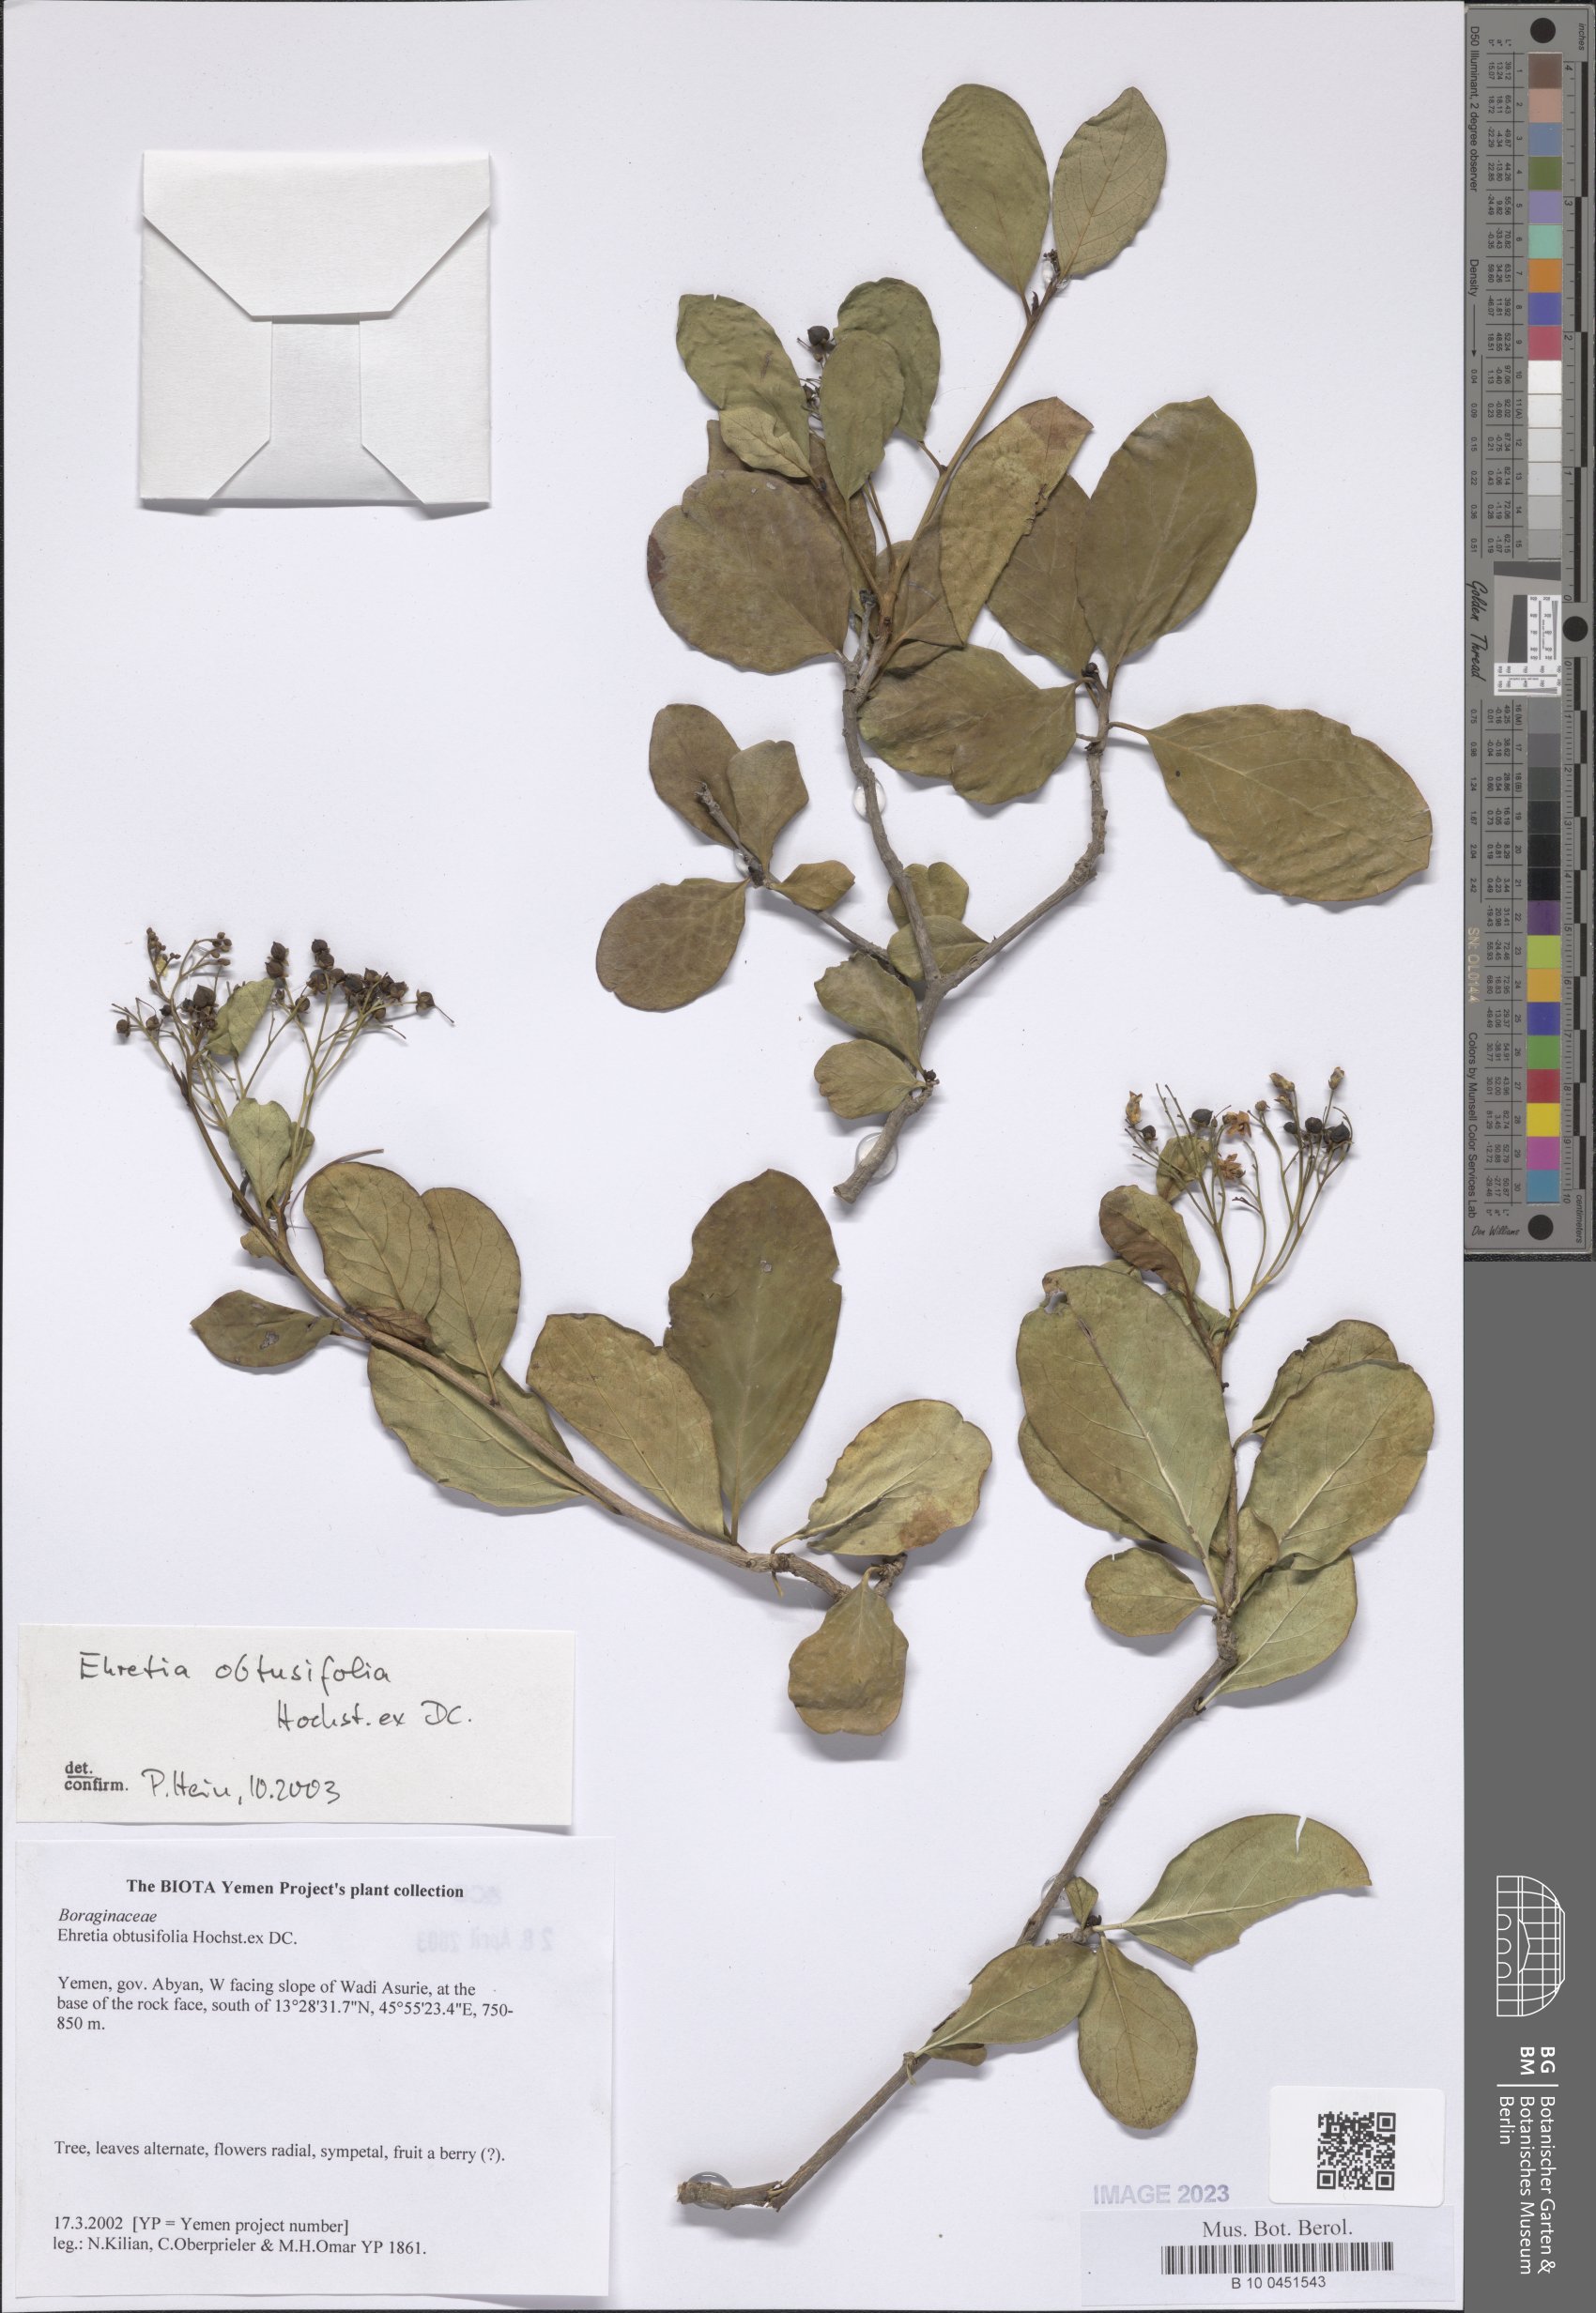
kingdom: Plantae
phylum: Tracheophyta
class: Magnoliopsida
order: Boraginales
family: Ehretiaceae
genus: Ehretia
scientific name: Ehretia obtusifolia
